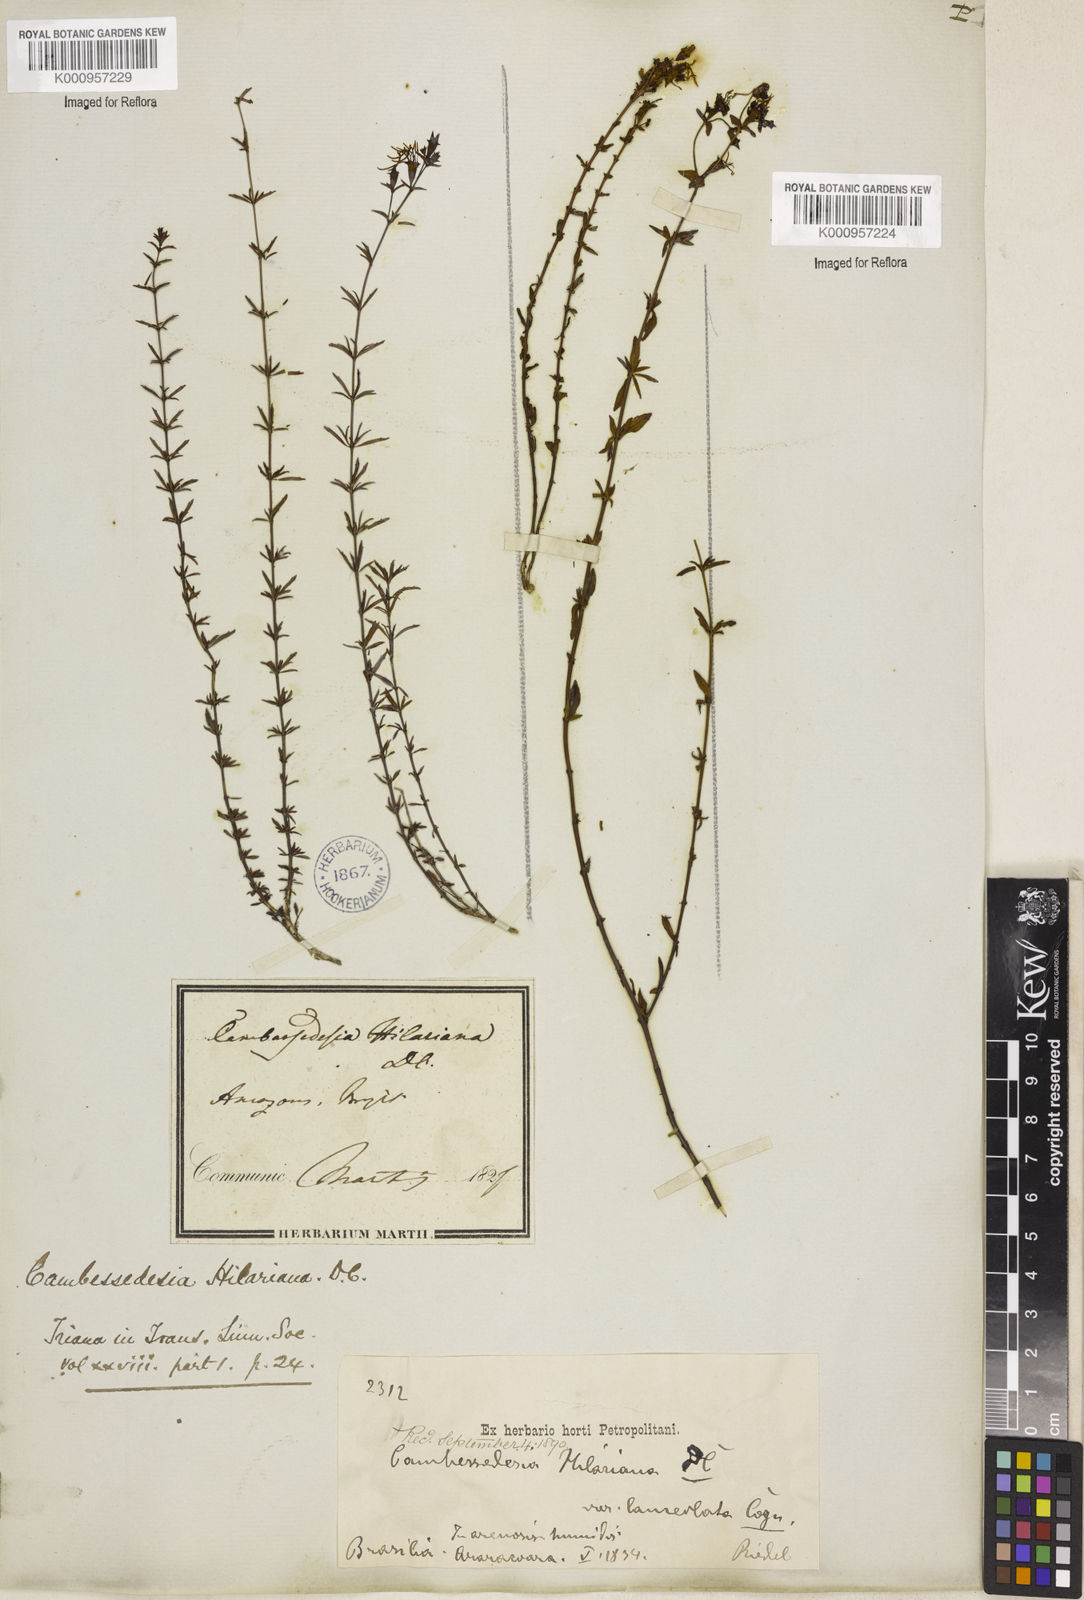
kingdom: Plantae
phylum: Tracheophyta
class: Magnoliopsida
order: Myrtales
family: Melastomataceae
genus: Cambessedesia
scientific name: Cambessedesia hilariana
